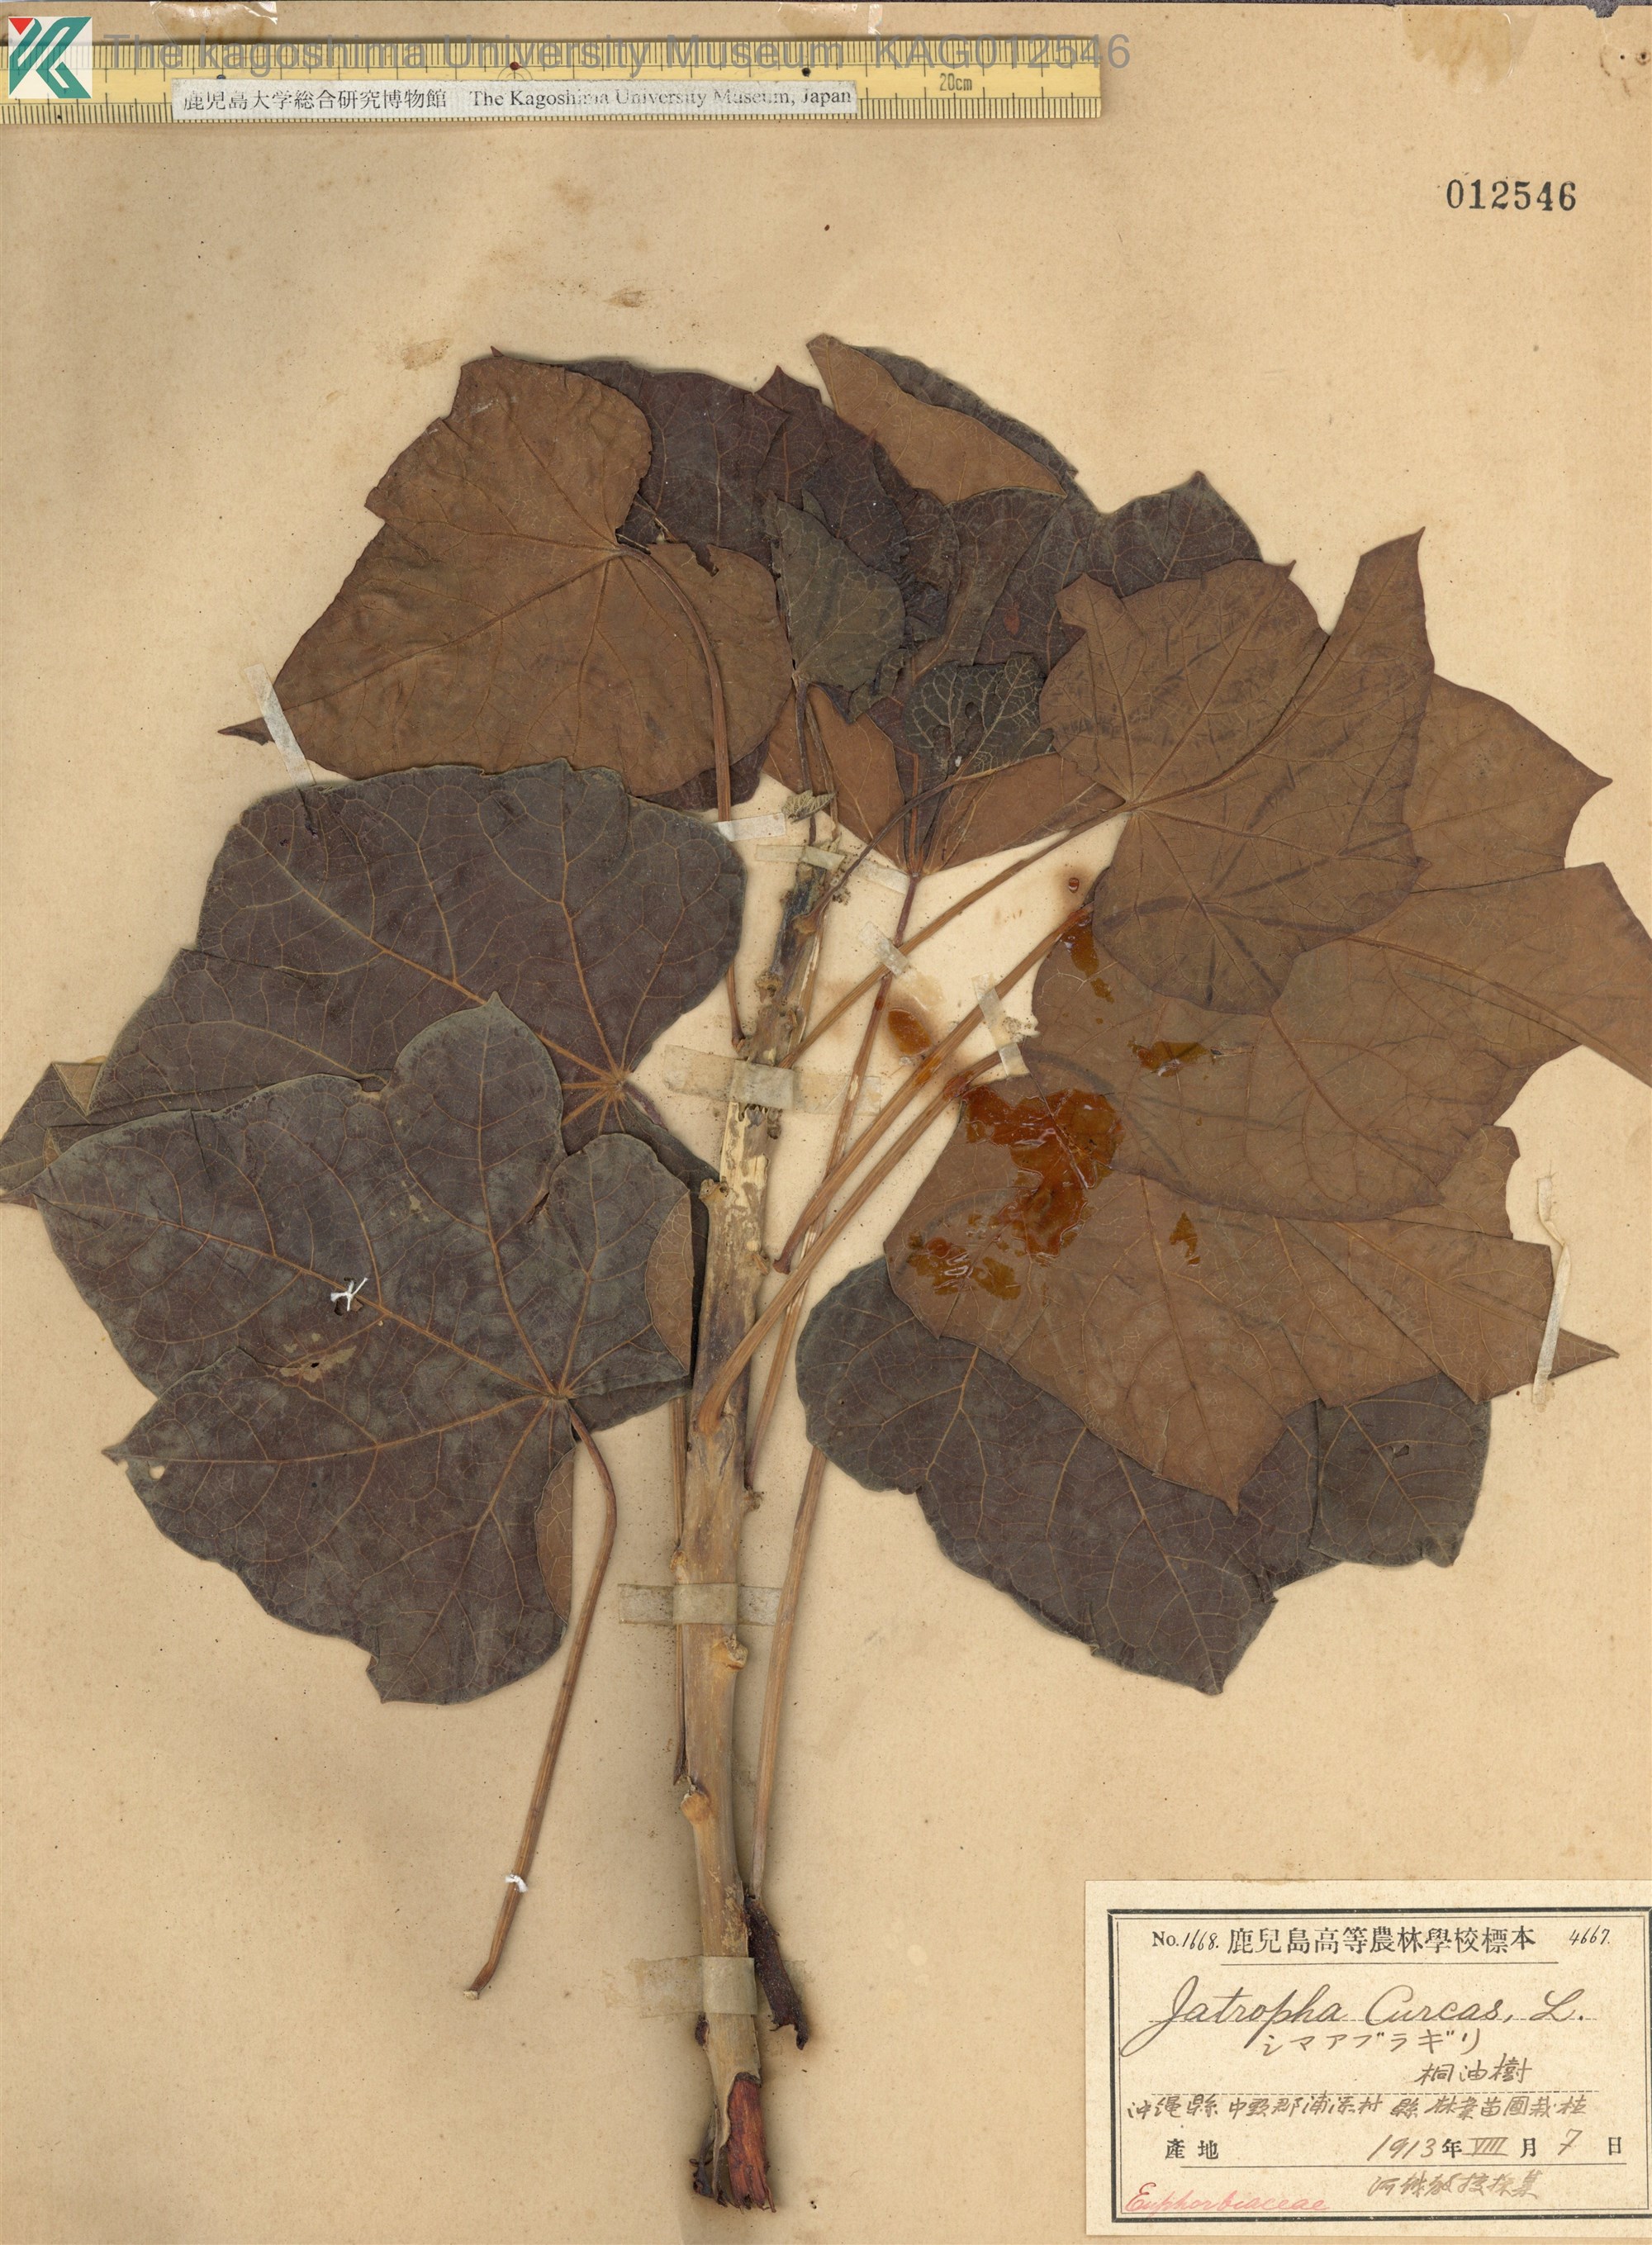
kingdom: Plantae
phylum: Tracheophyta
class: Magnoliopsida
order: Malpighiales
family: Euphorbiaceae
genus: Jatropha
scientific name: Jatropha curcas
